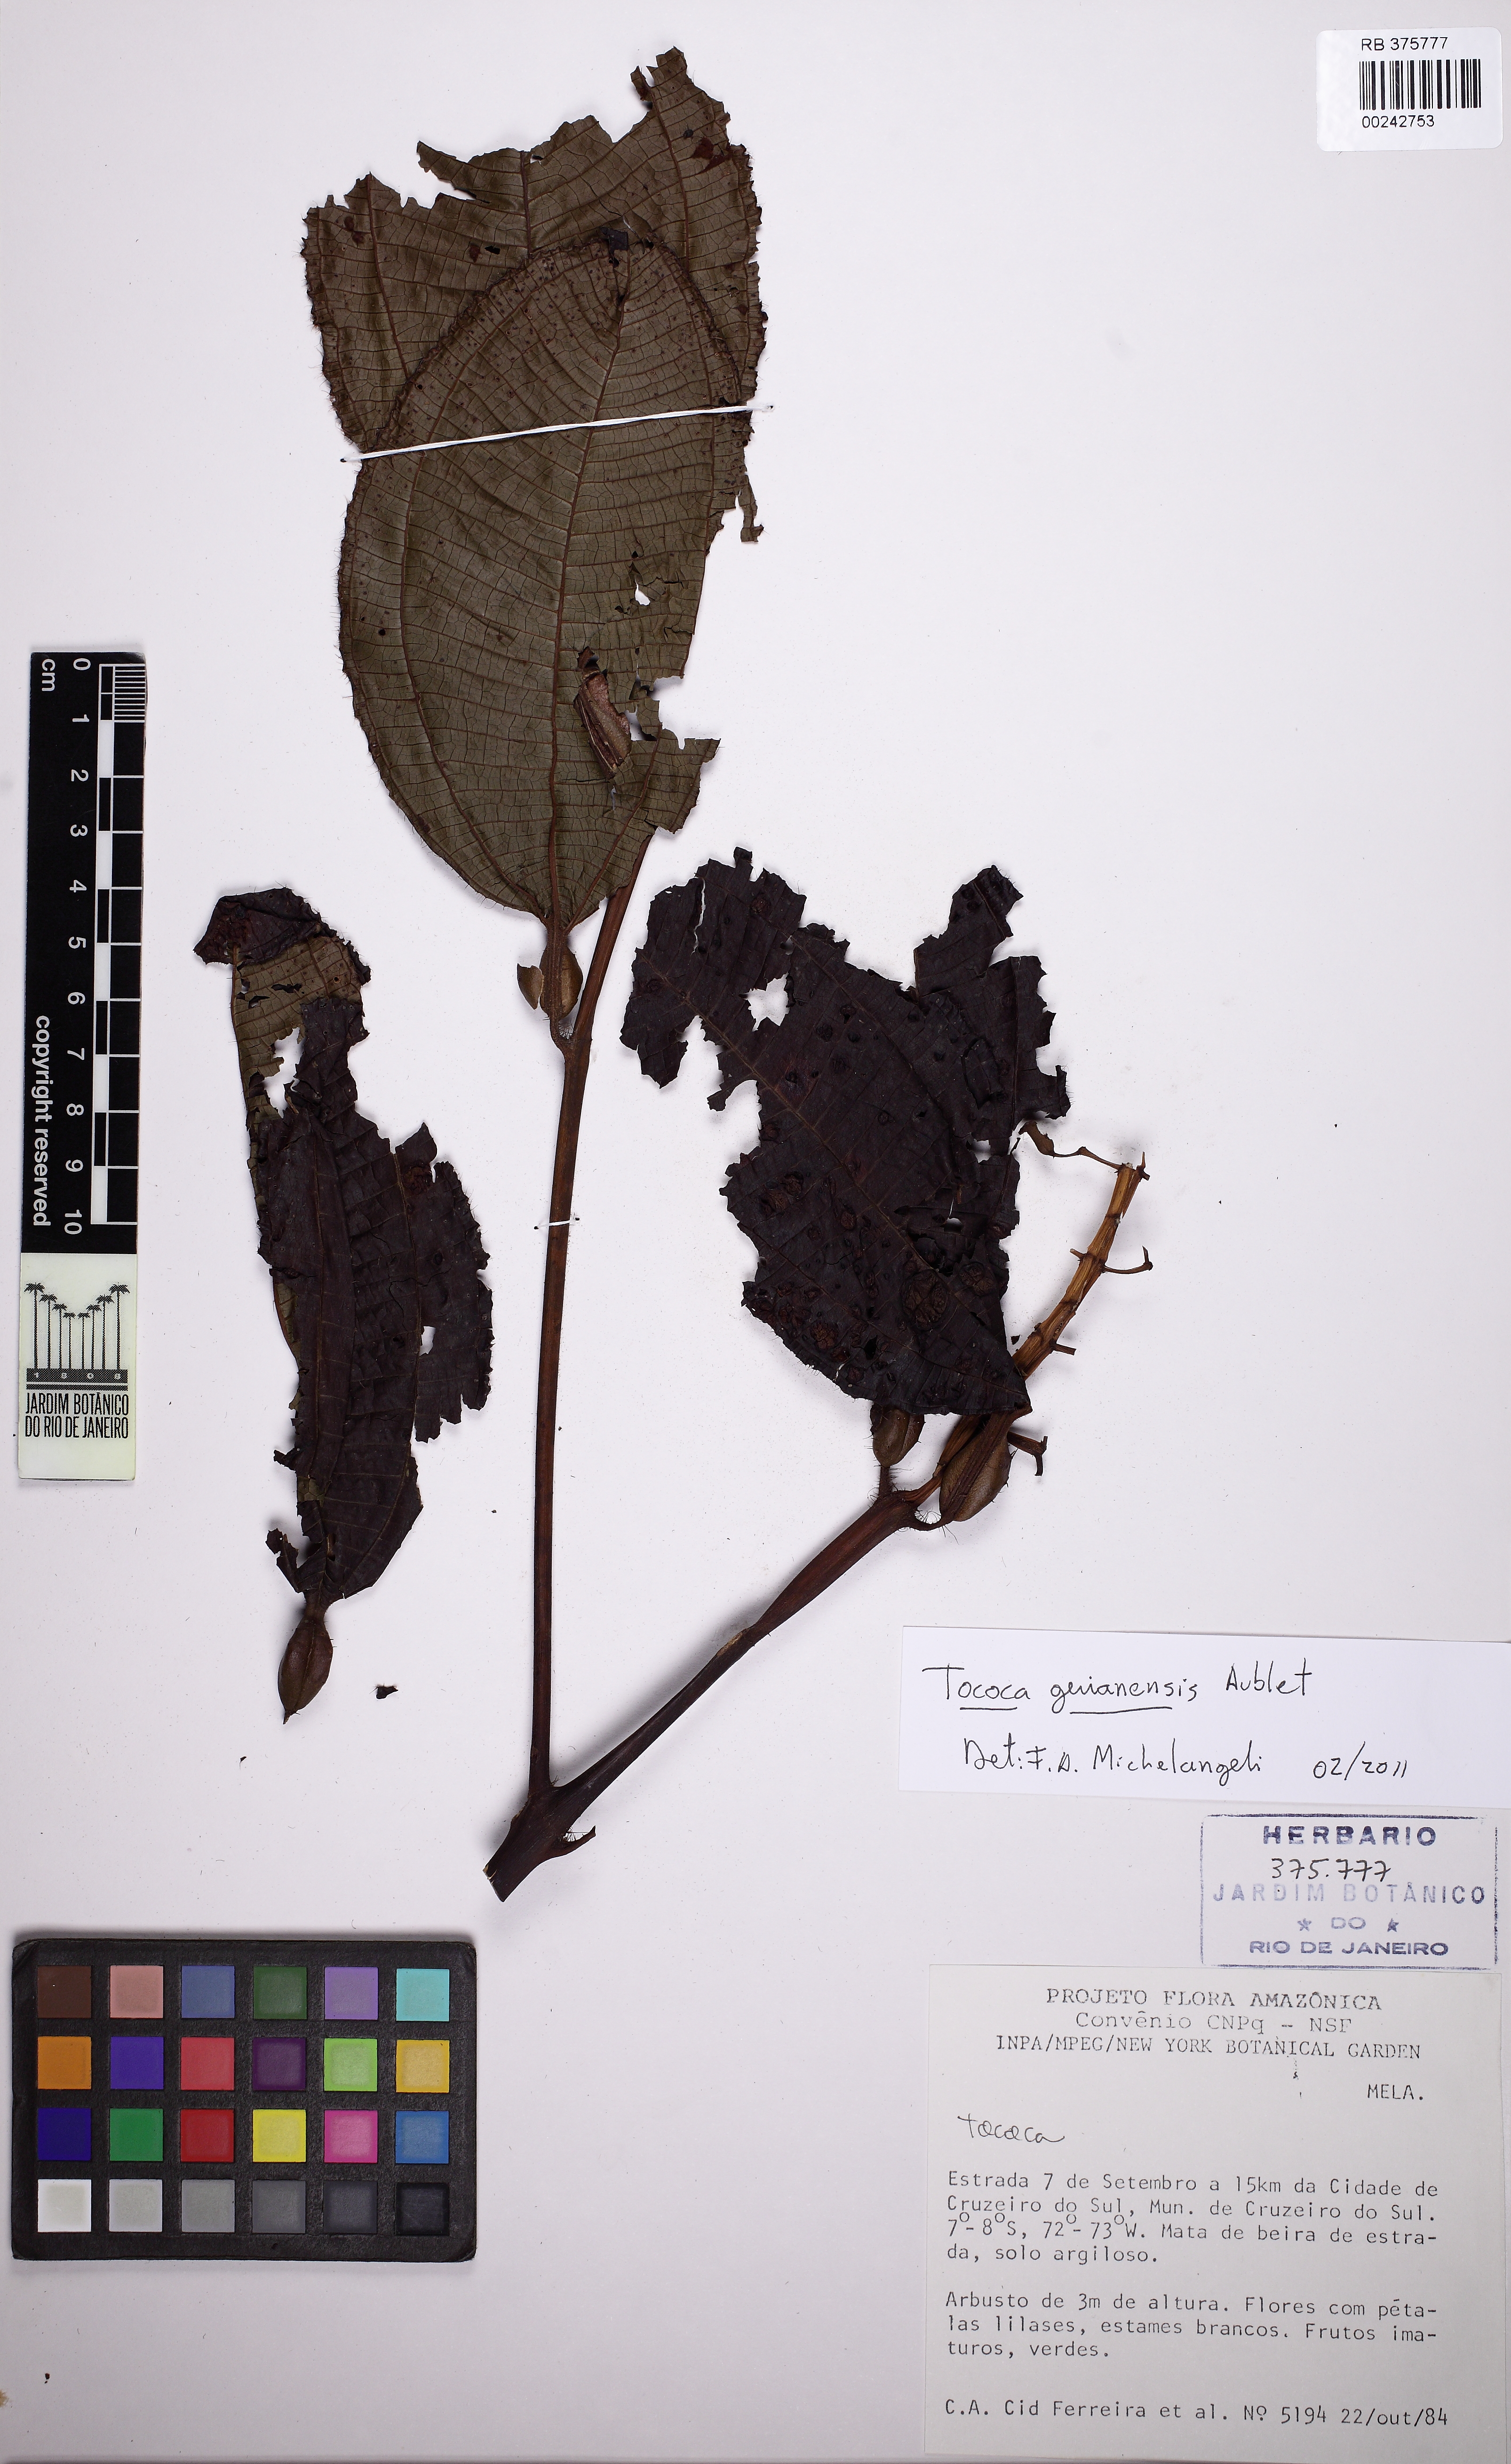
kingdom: Plantae
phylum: Tracheophyta
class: Magnoliopsida
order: Myrtales
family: Melastomataceae
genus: Miconia
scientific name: Miconia tococa
